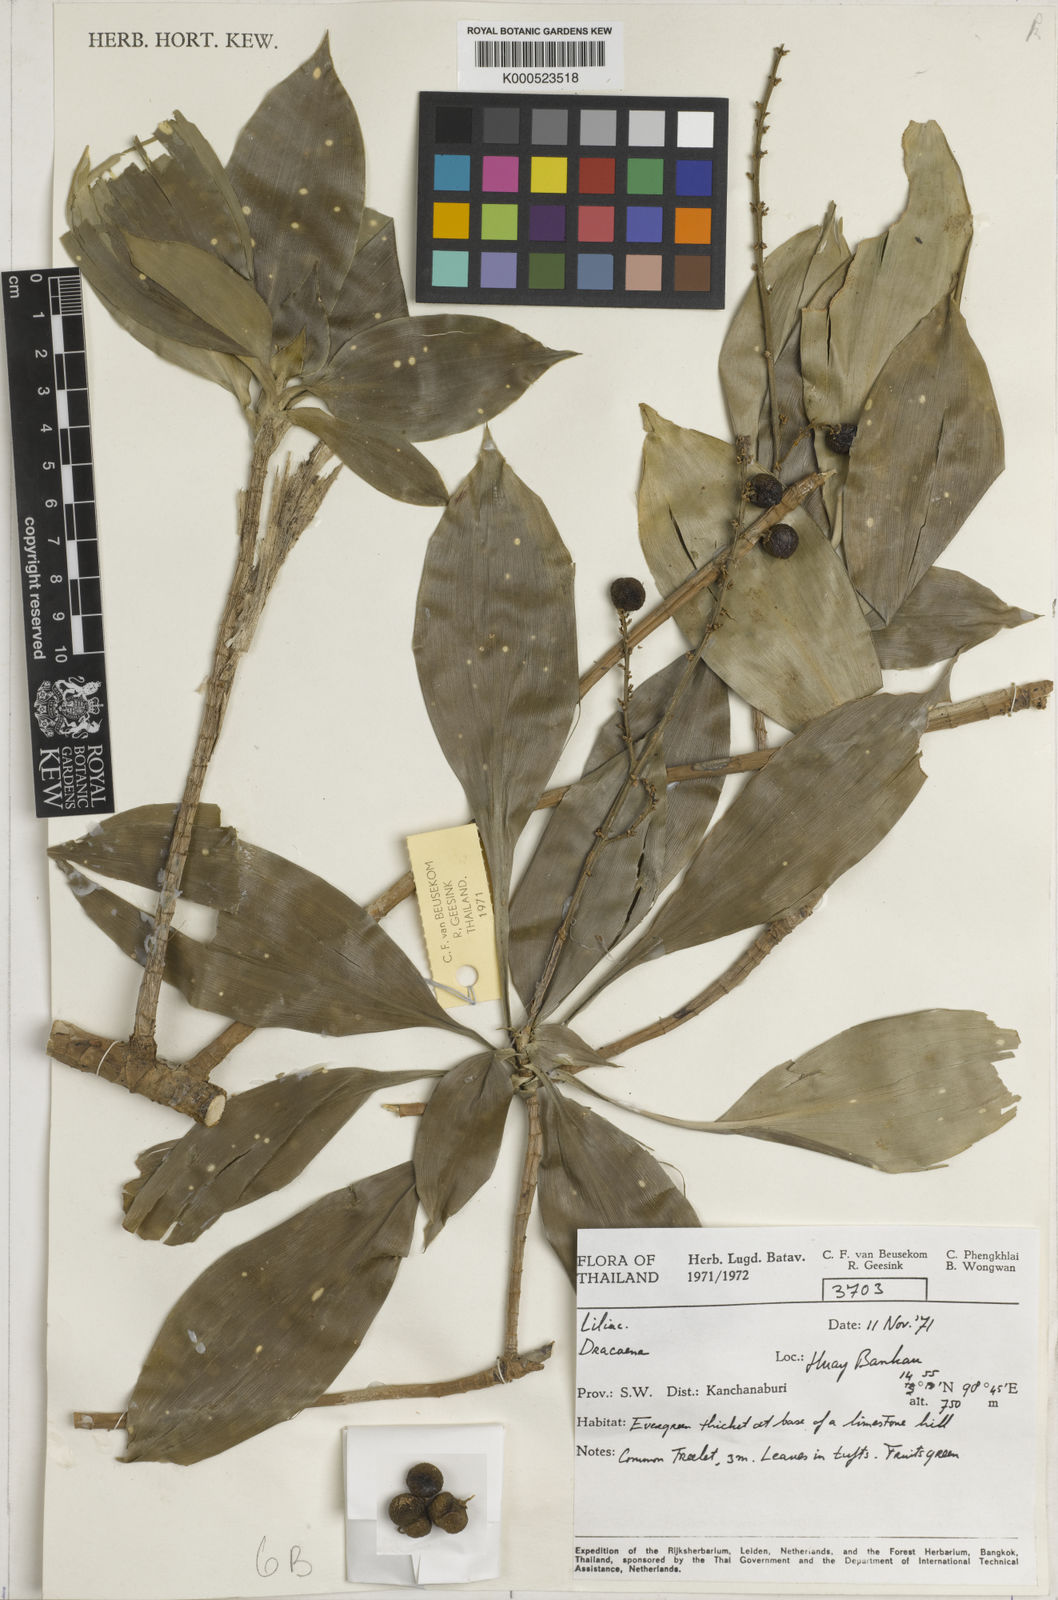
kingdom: Plantae
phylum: Tracheophyta
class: Liliopsida
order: Asparagales
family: Asparagaceae
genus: Dracaena
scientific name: Dracaena
